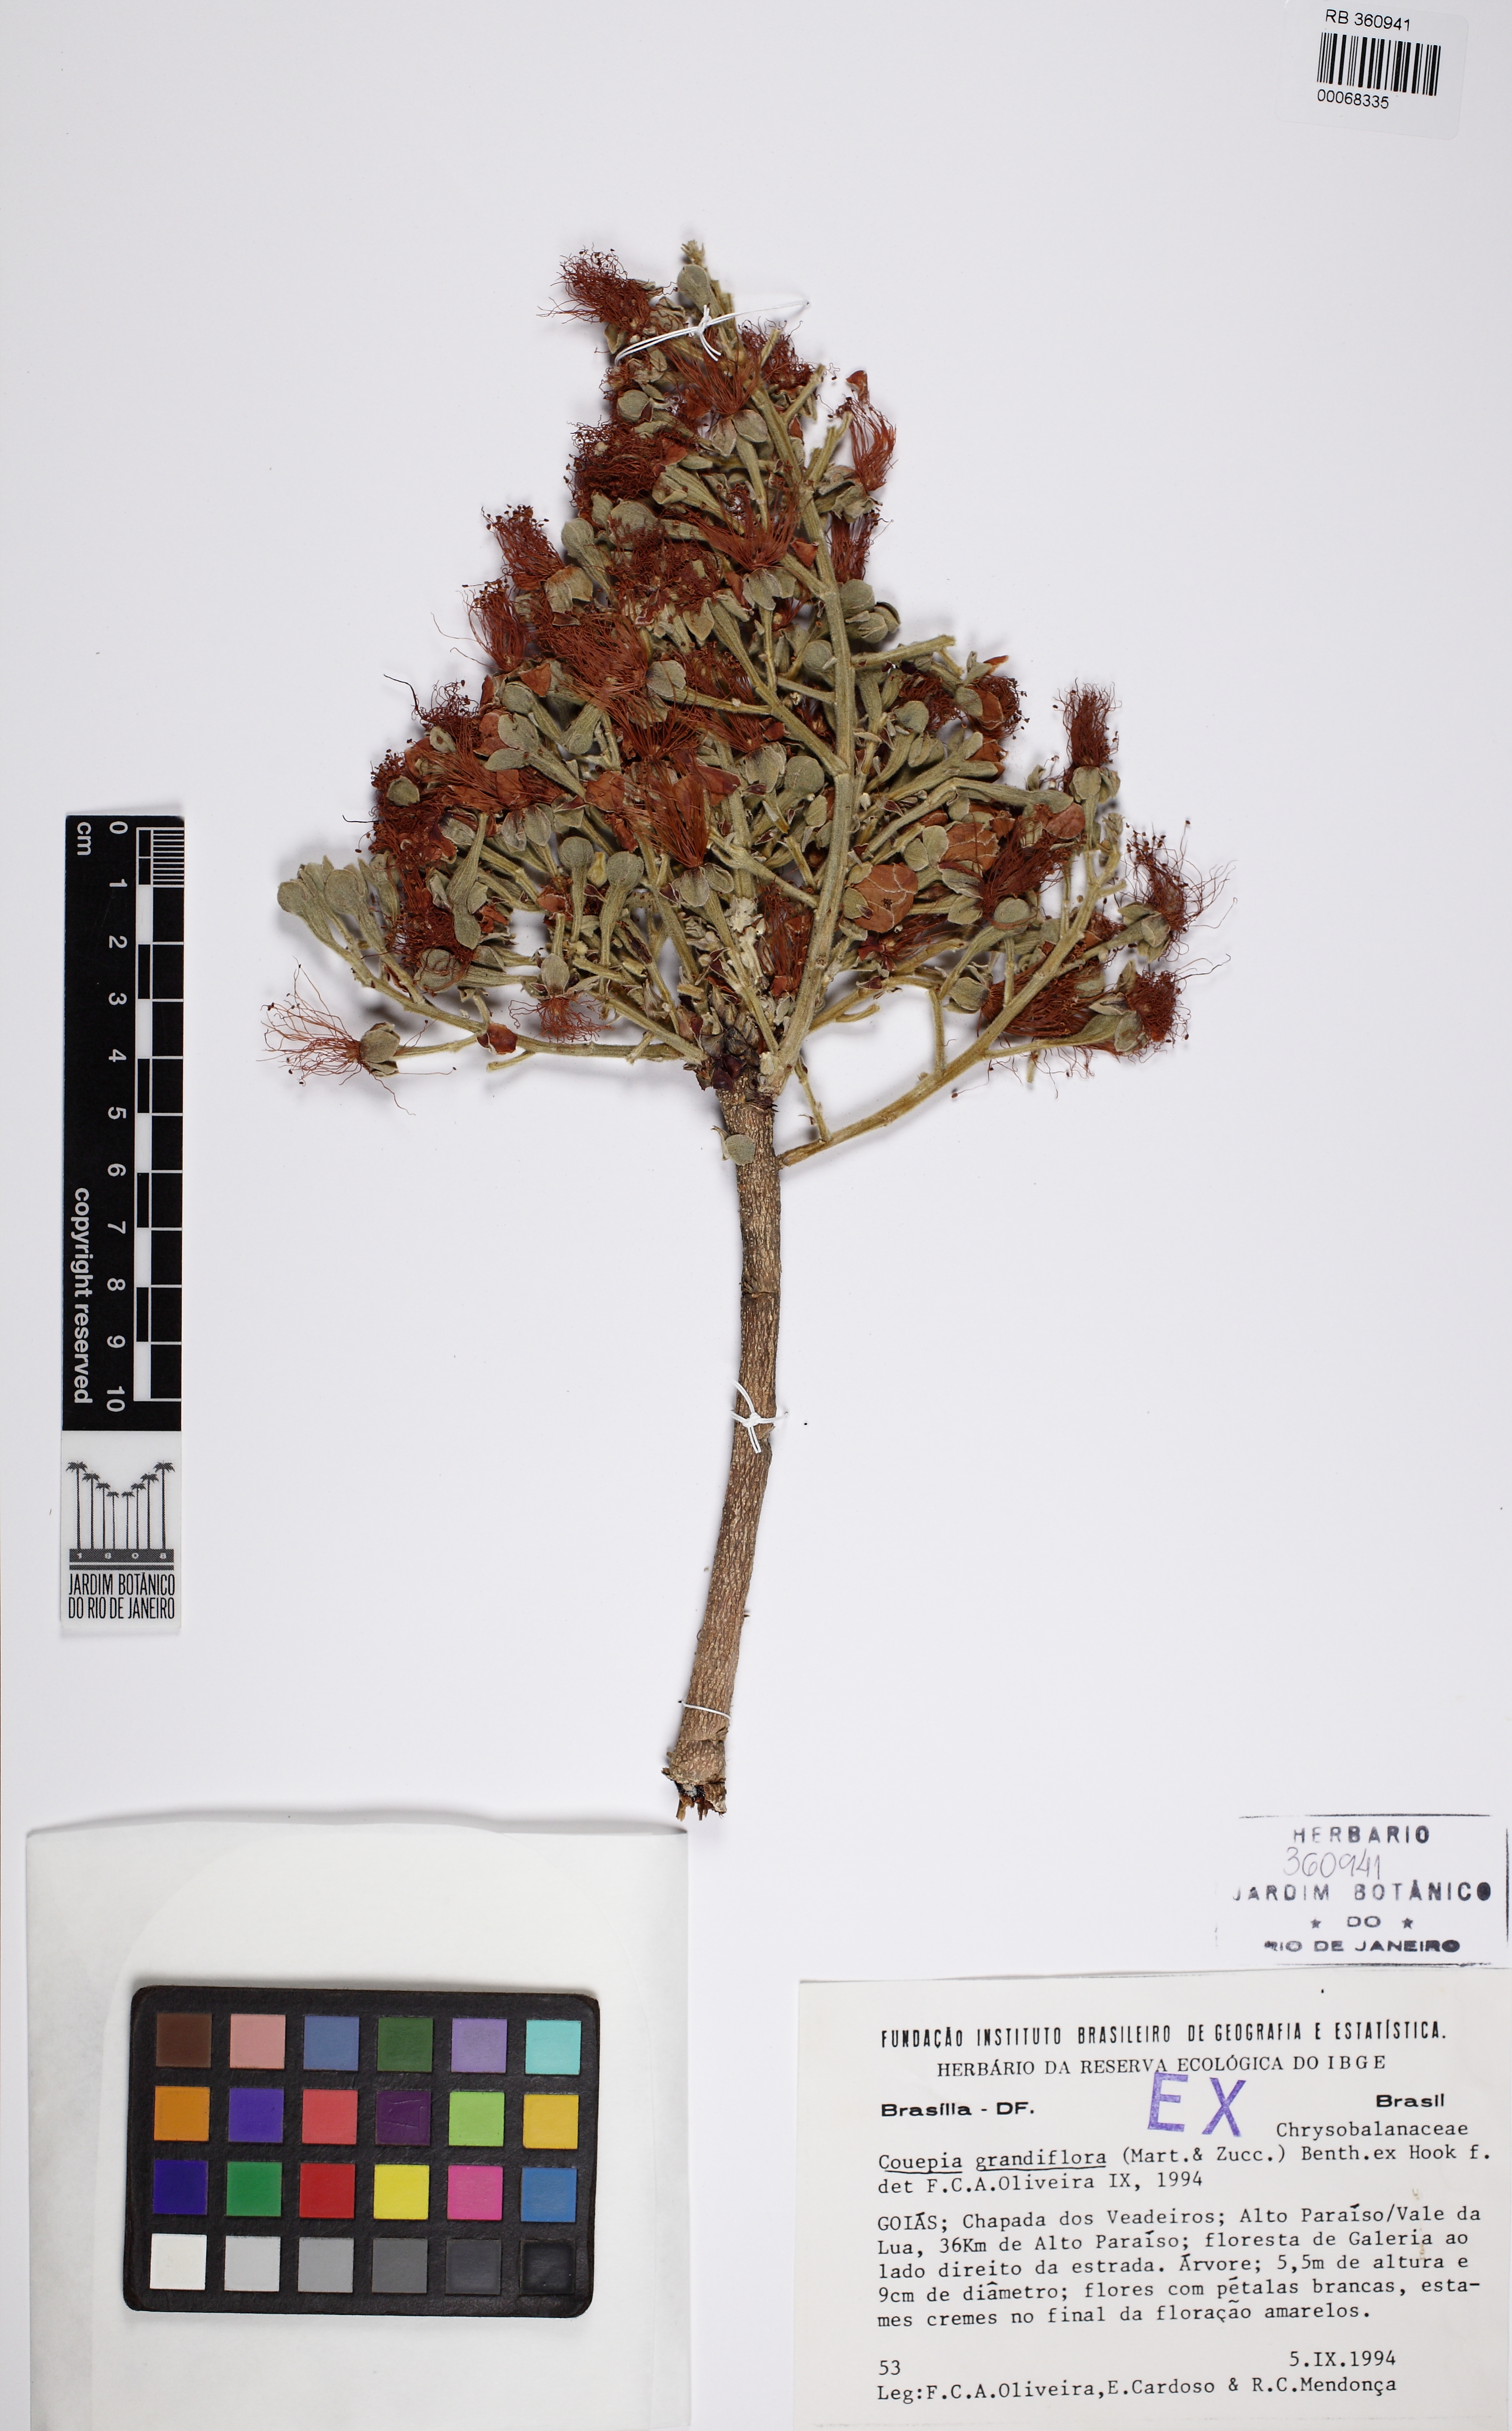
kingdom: Plantae
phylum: Tracheophyta
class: Magnoliopsida
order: Malpighiales
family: Chrysobalanaceae
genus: Couepia
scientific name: Couepia grandiflora
